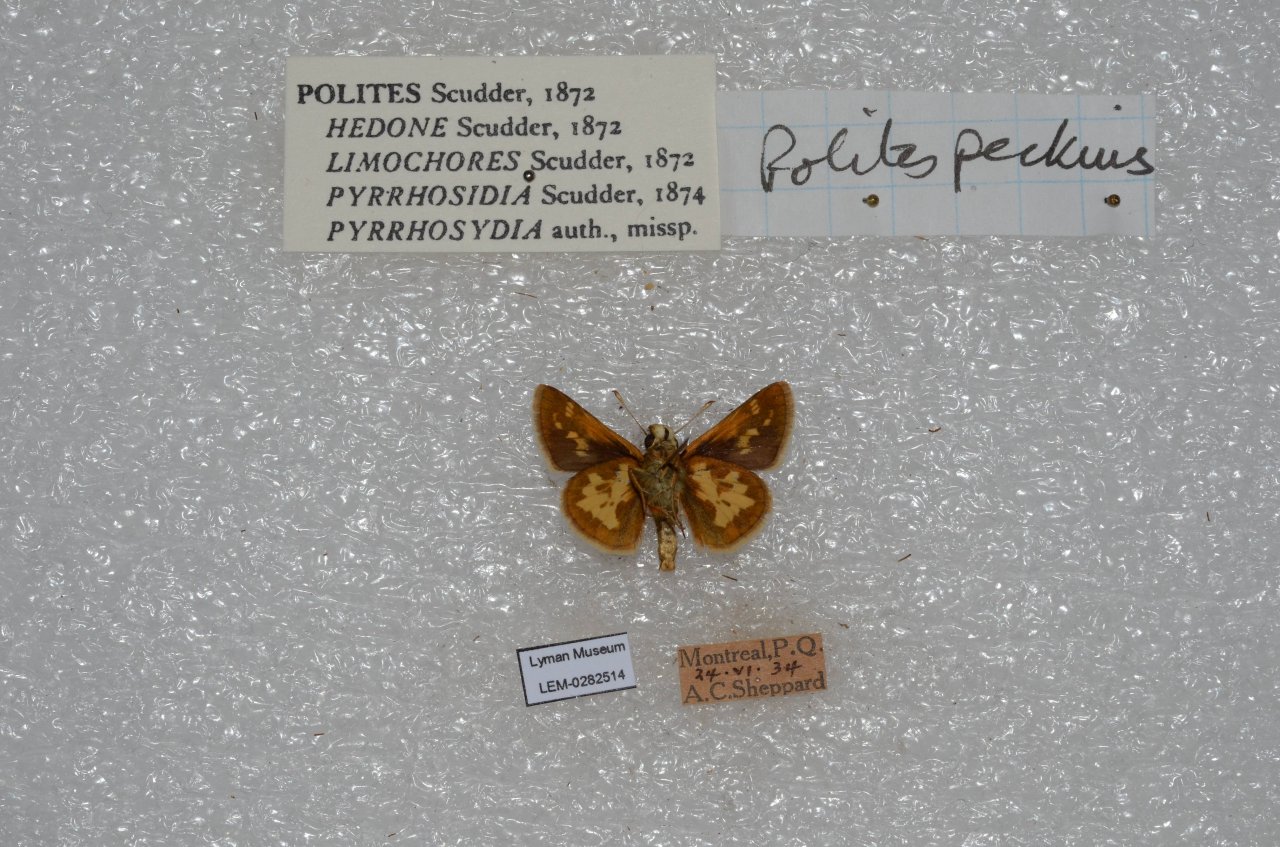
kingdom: Animalia
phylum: Arthropoda
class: Insecta
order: Lepidoptera
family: Hesperiidae
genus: Polites
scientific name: Polites coras
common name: Peck's Skipper
